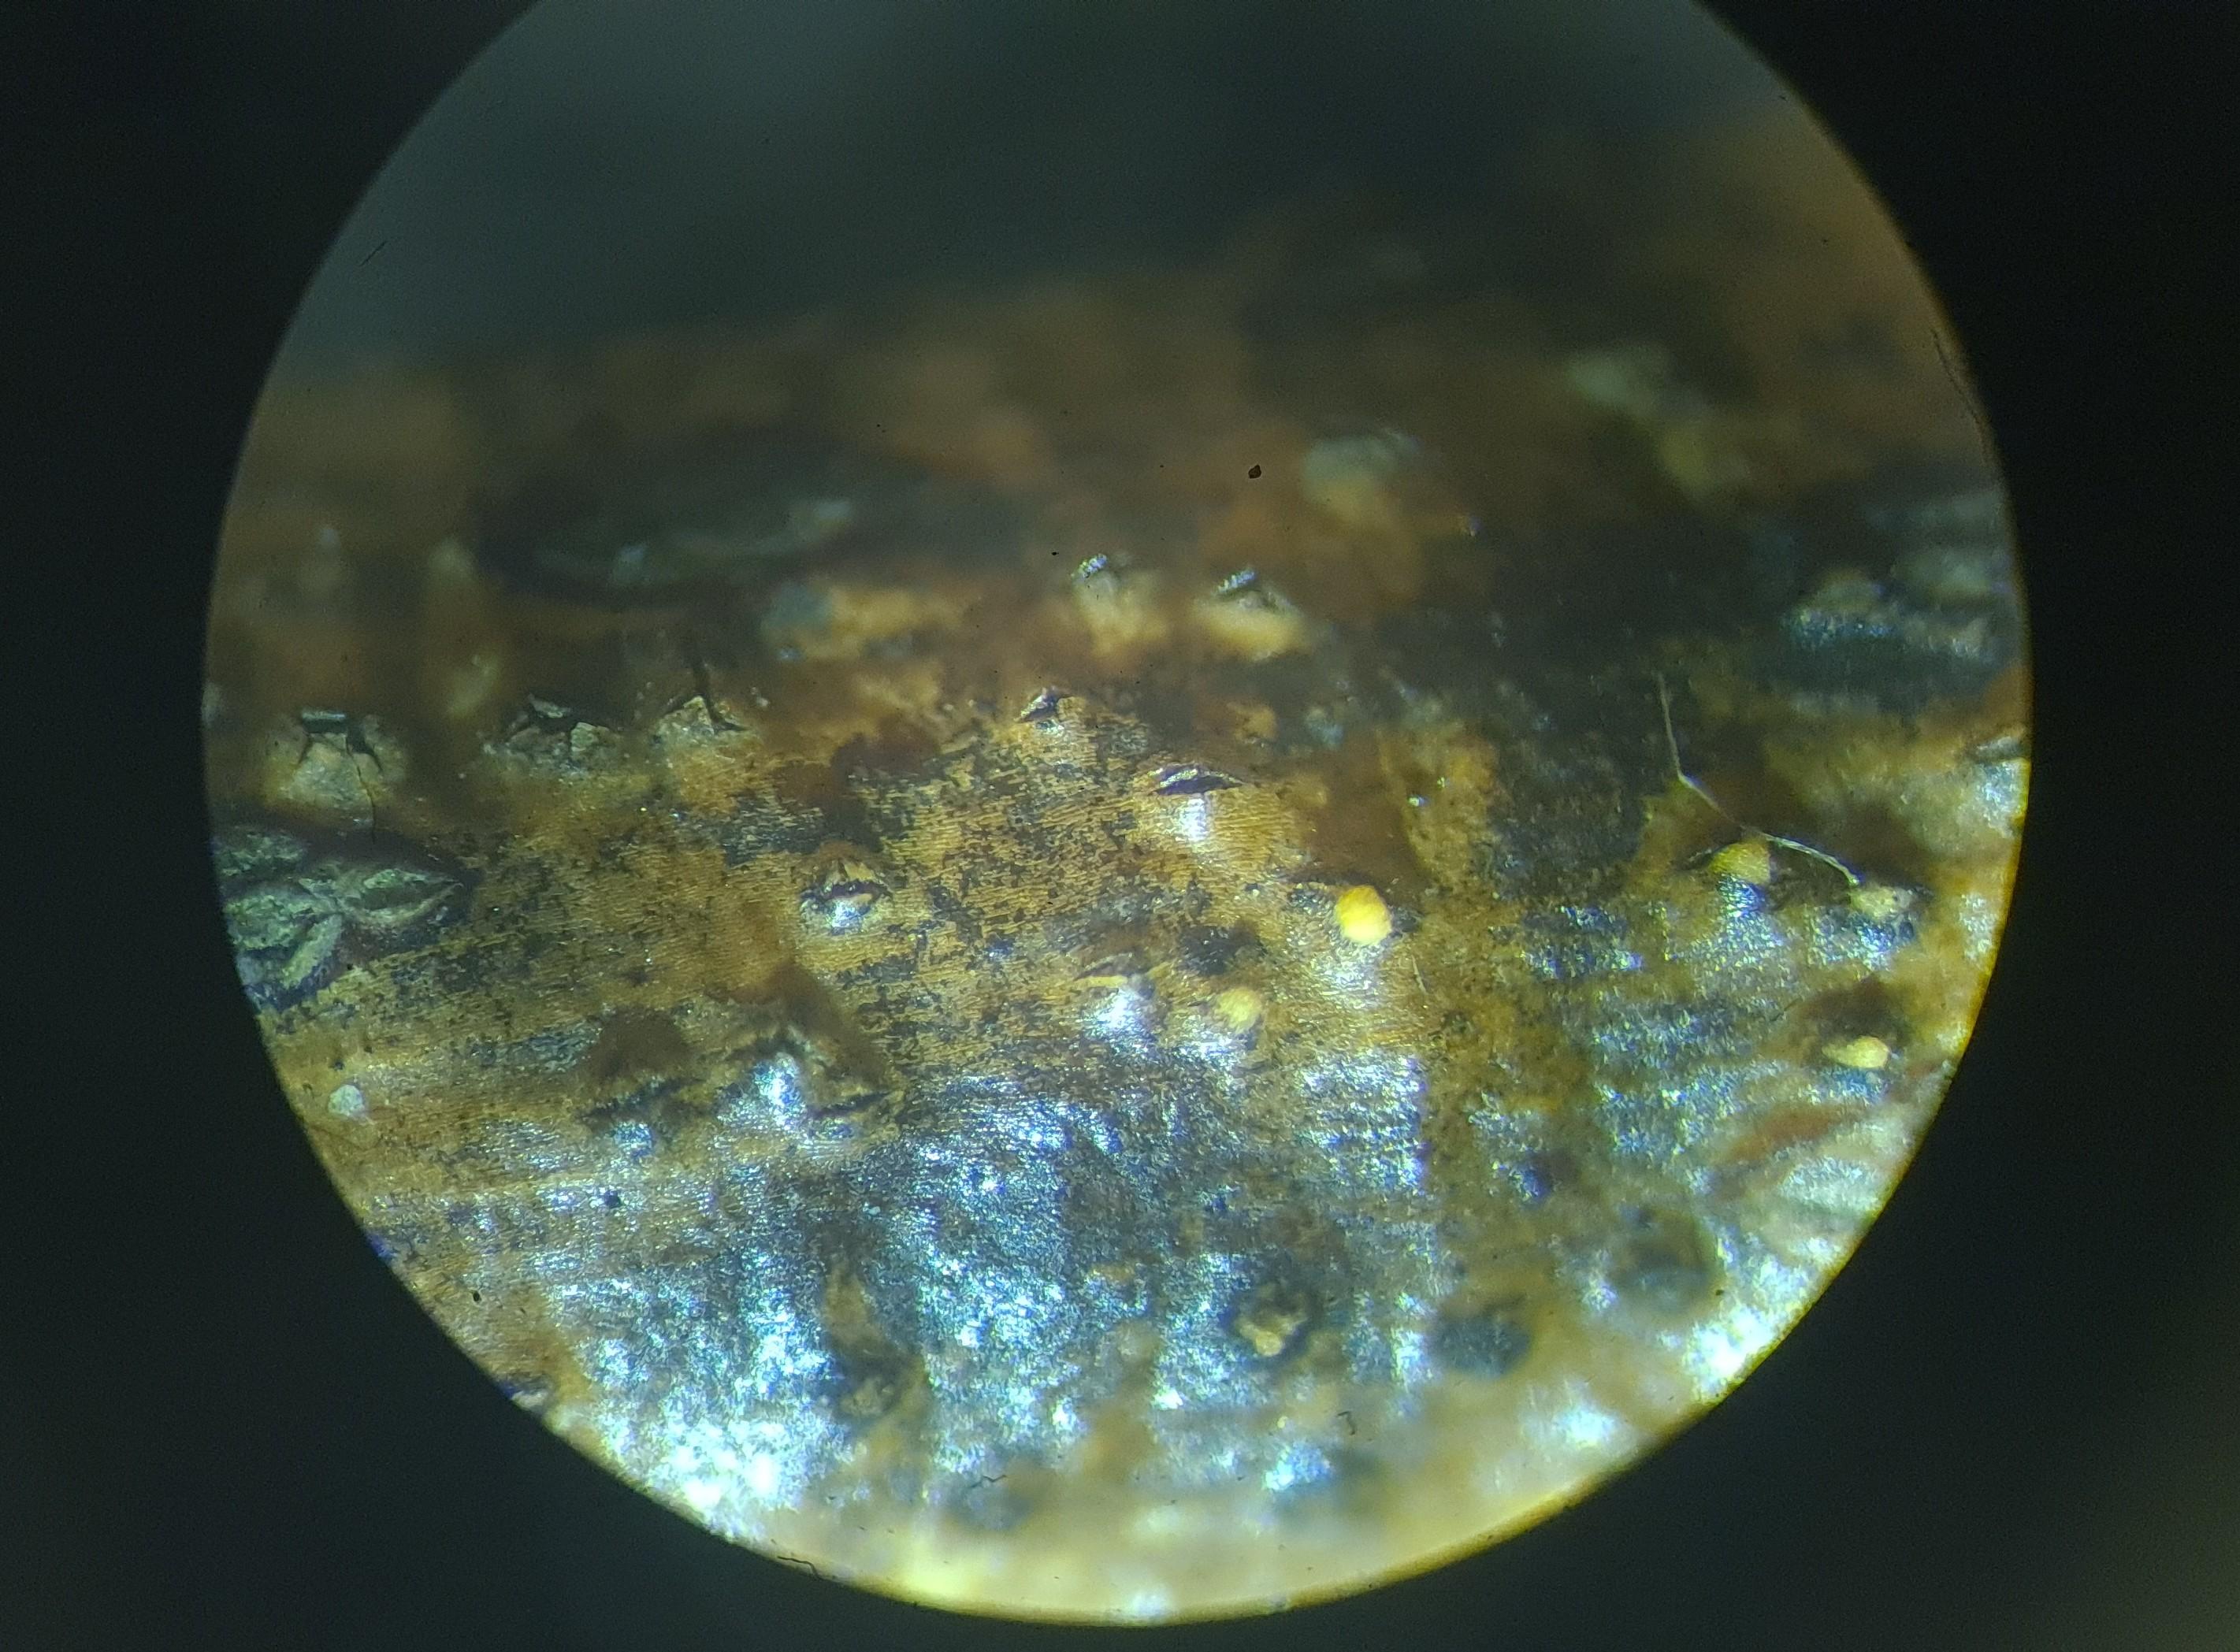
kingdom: Fungi
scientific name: Fungi
